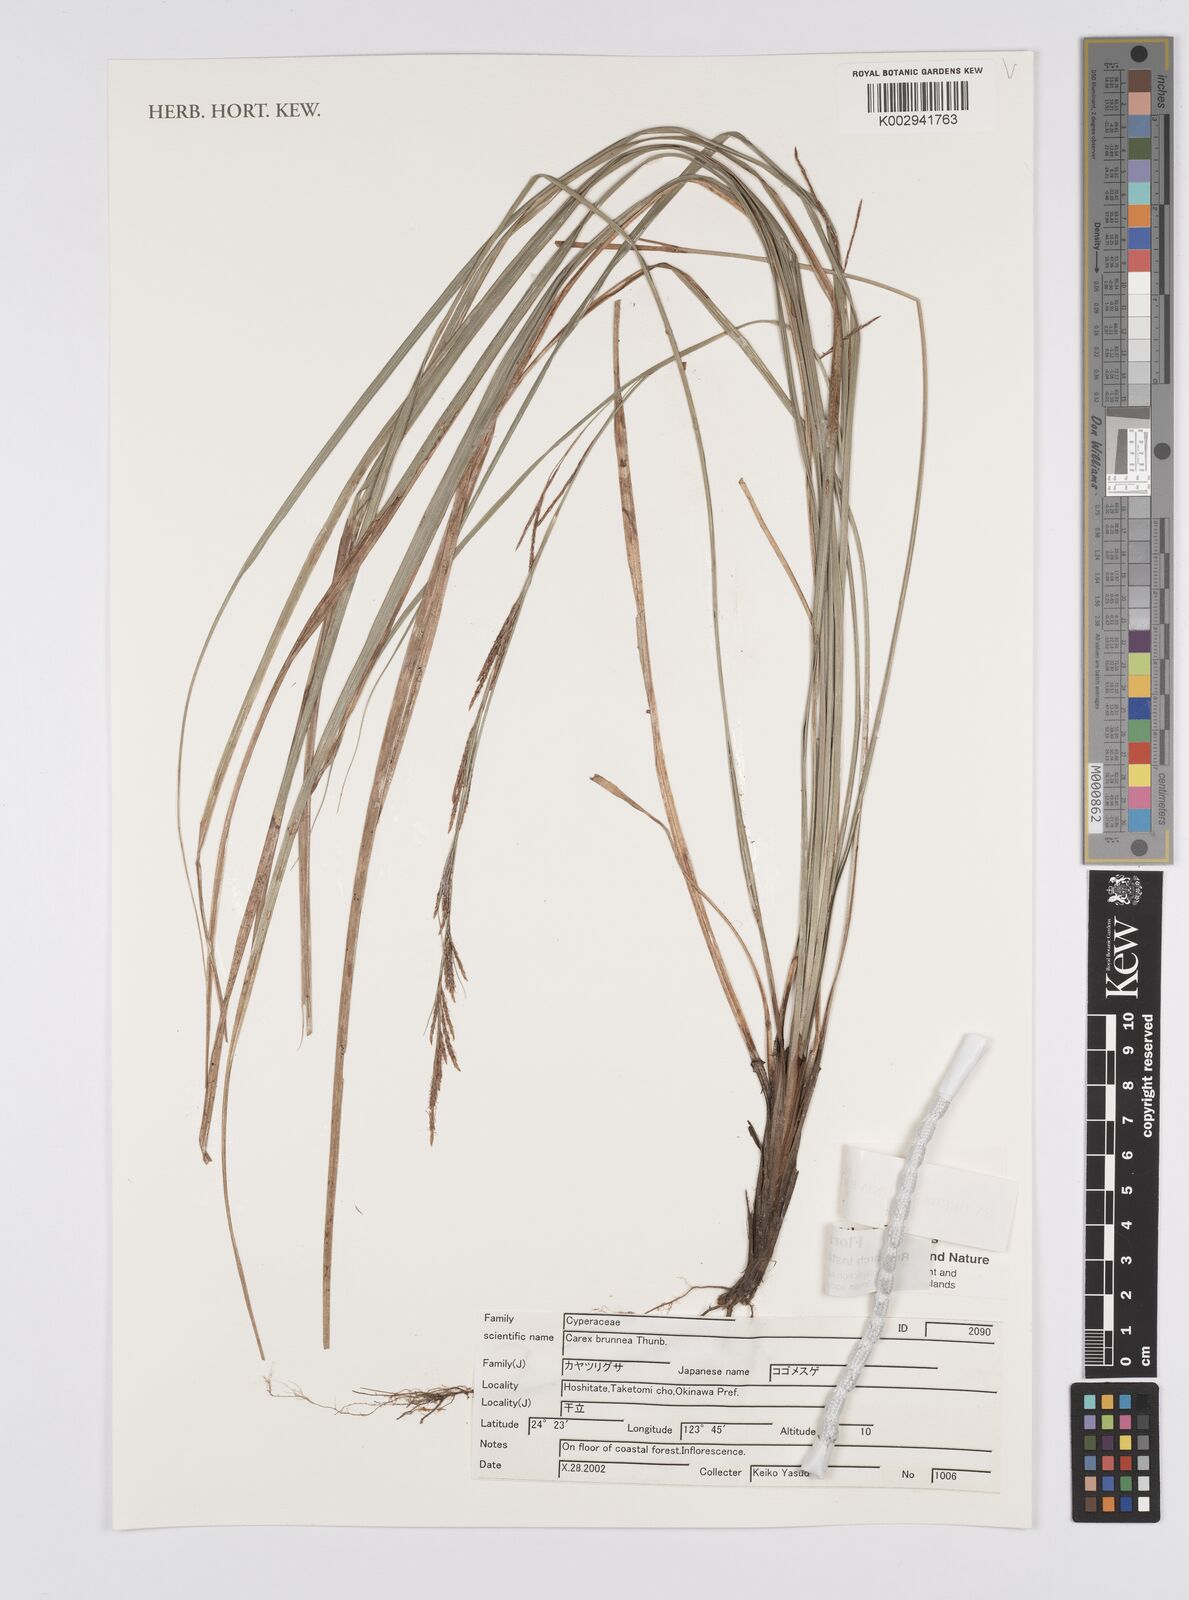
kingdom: Plantae
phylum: Tracheophyta
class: Liliopsida
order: Poales
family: Cyperaceae
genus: Carex
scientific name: Carex brunnea
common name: Greater brown sedge
